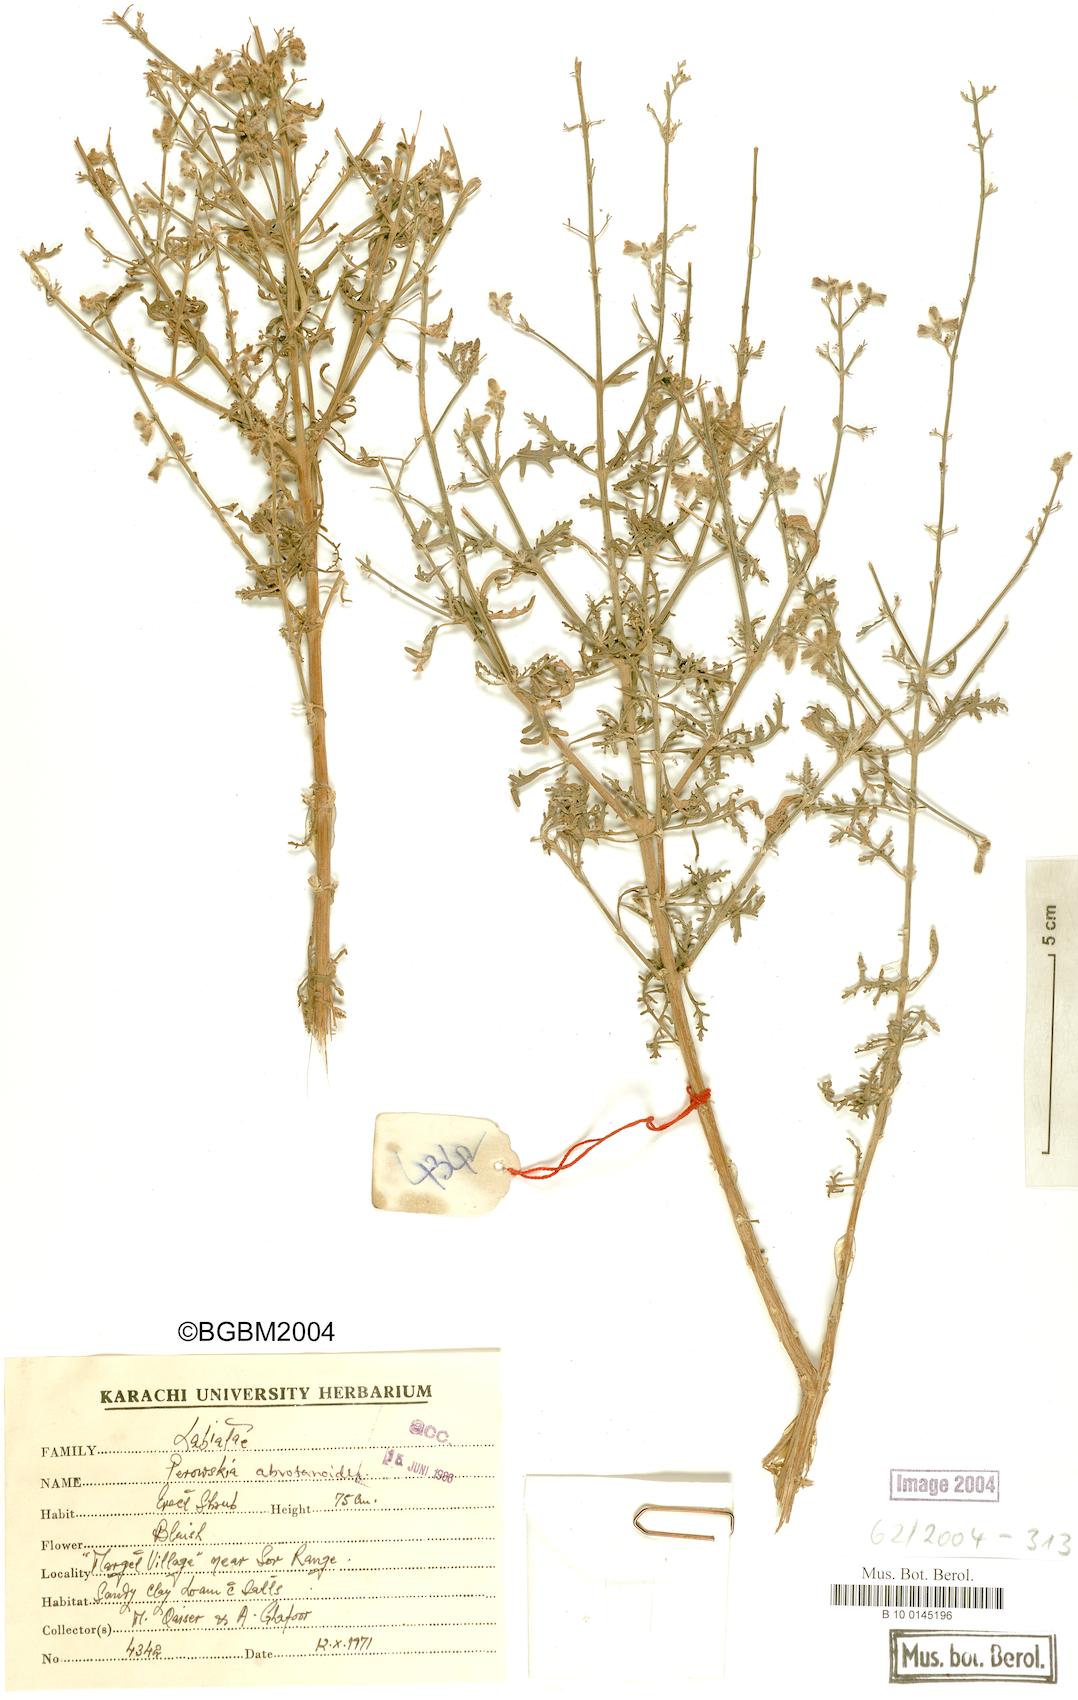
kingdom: Plantae
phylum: Tracheophyta
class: Magnoliopsida
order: Lamiales
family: Lamiaceae
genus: Salvia
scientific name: Salvia abrotanoides
